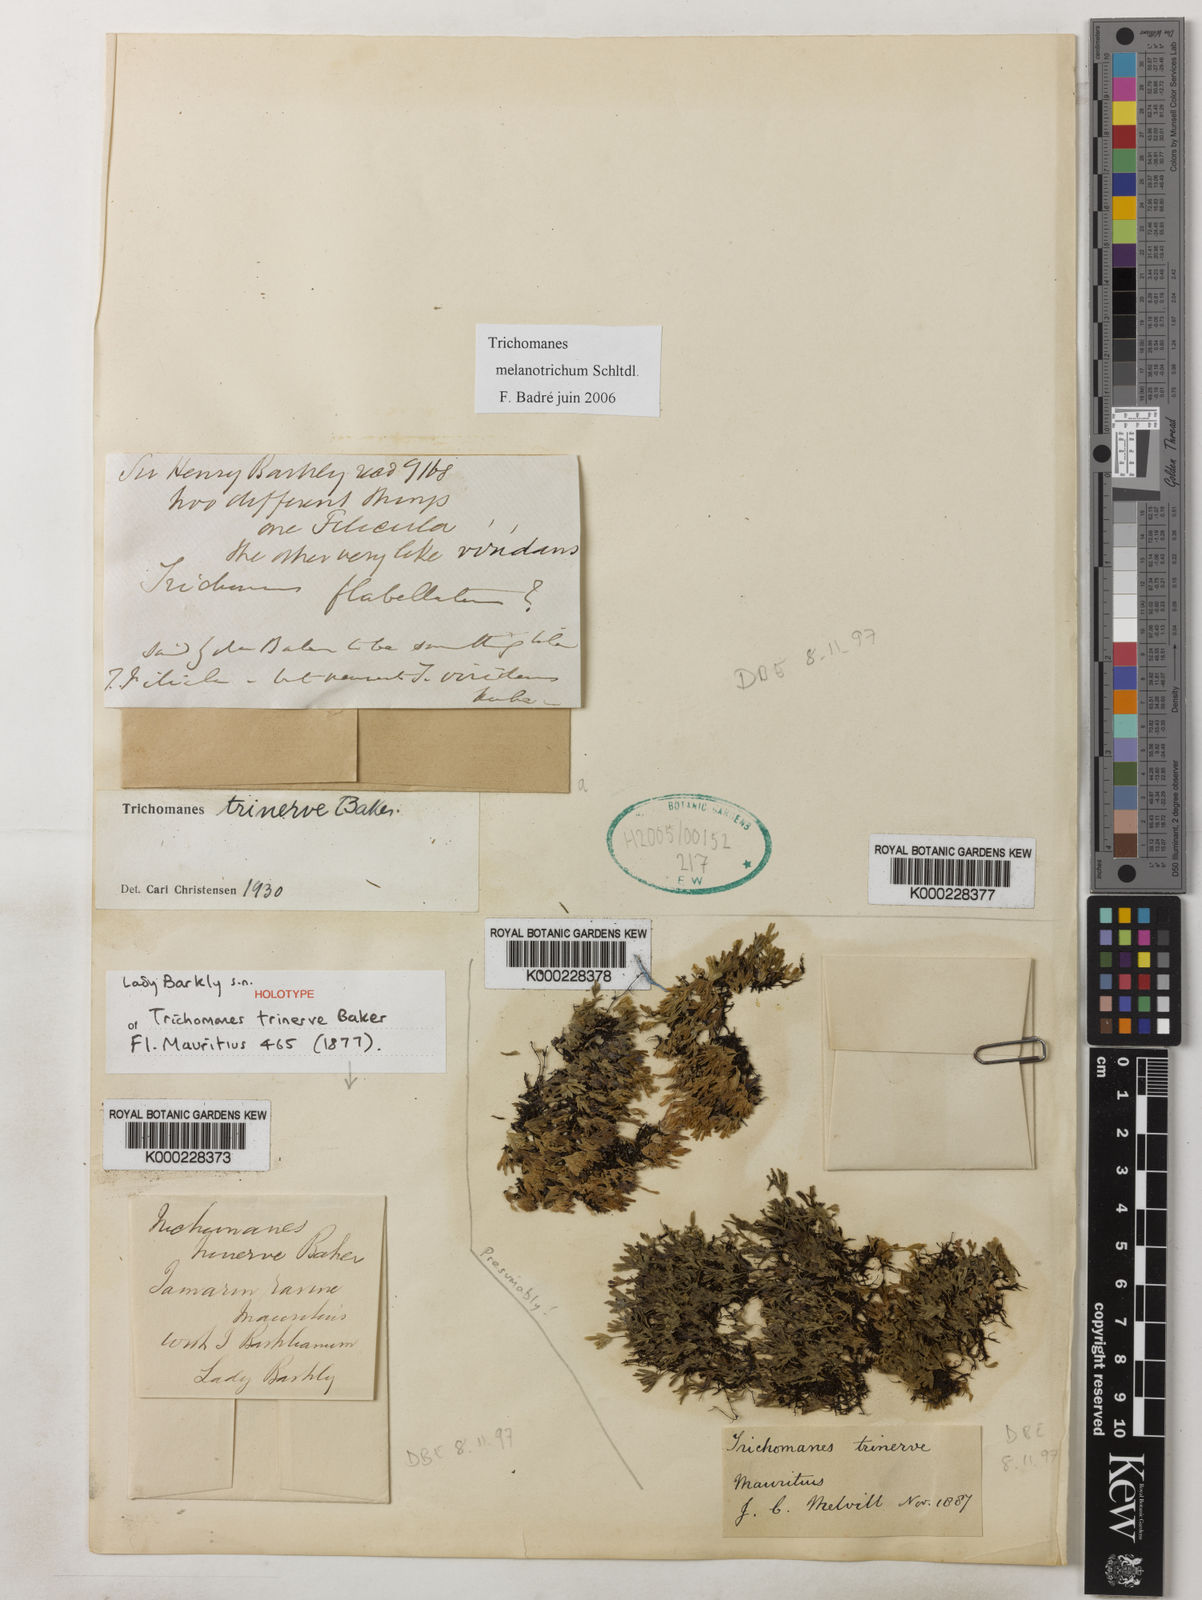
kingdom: Plantae
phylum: Tracheophyta
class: Polypodiopsida
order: Hymenophyllales
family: Hymenophyllaceae
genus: Crepidomanes
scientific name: Crepidomanes trinerve
